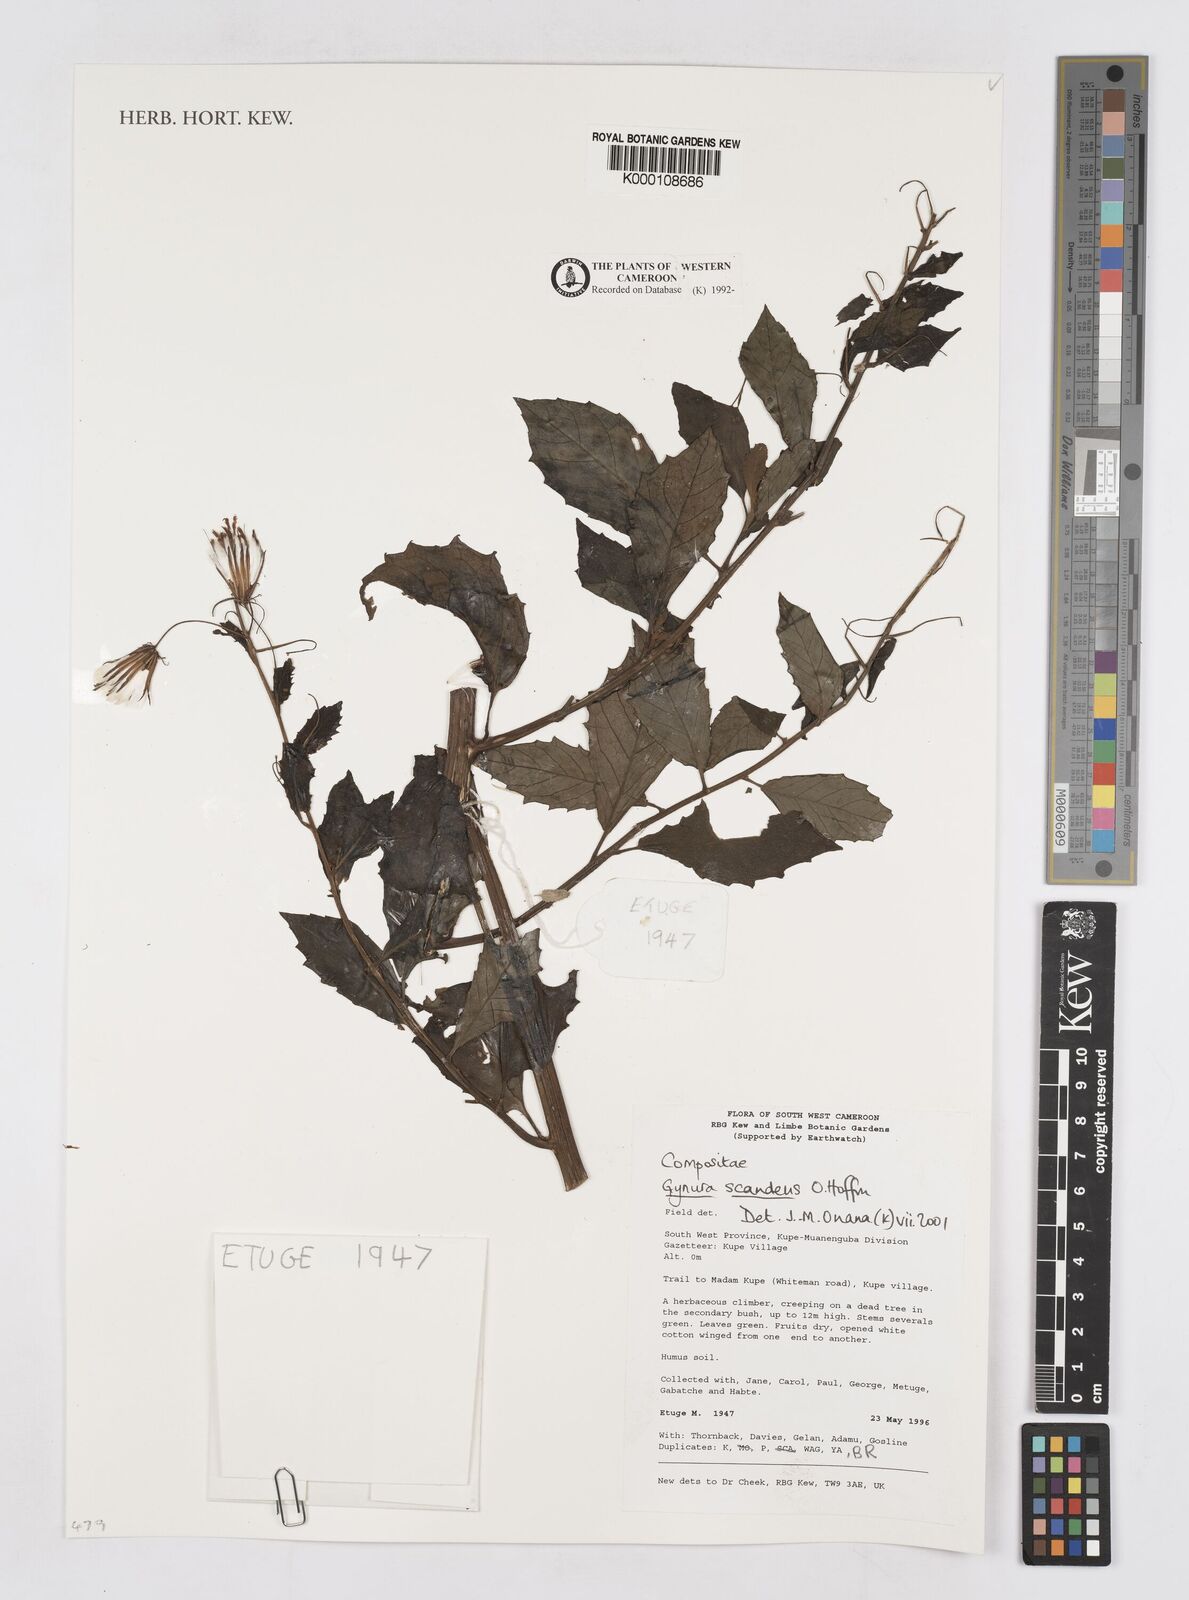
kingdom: Plantae
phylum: Tracheophyta
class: Magnoliopsida
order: Asterales
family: Asteraceae
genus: Gynura
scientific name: Gynura scandens
